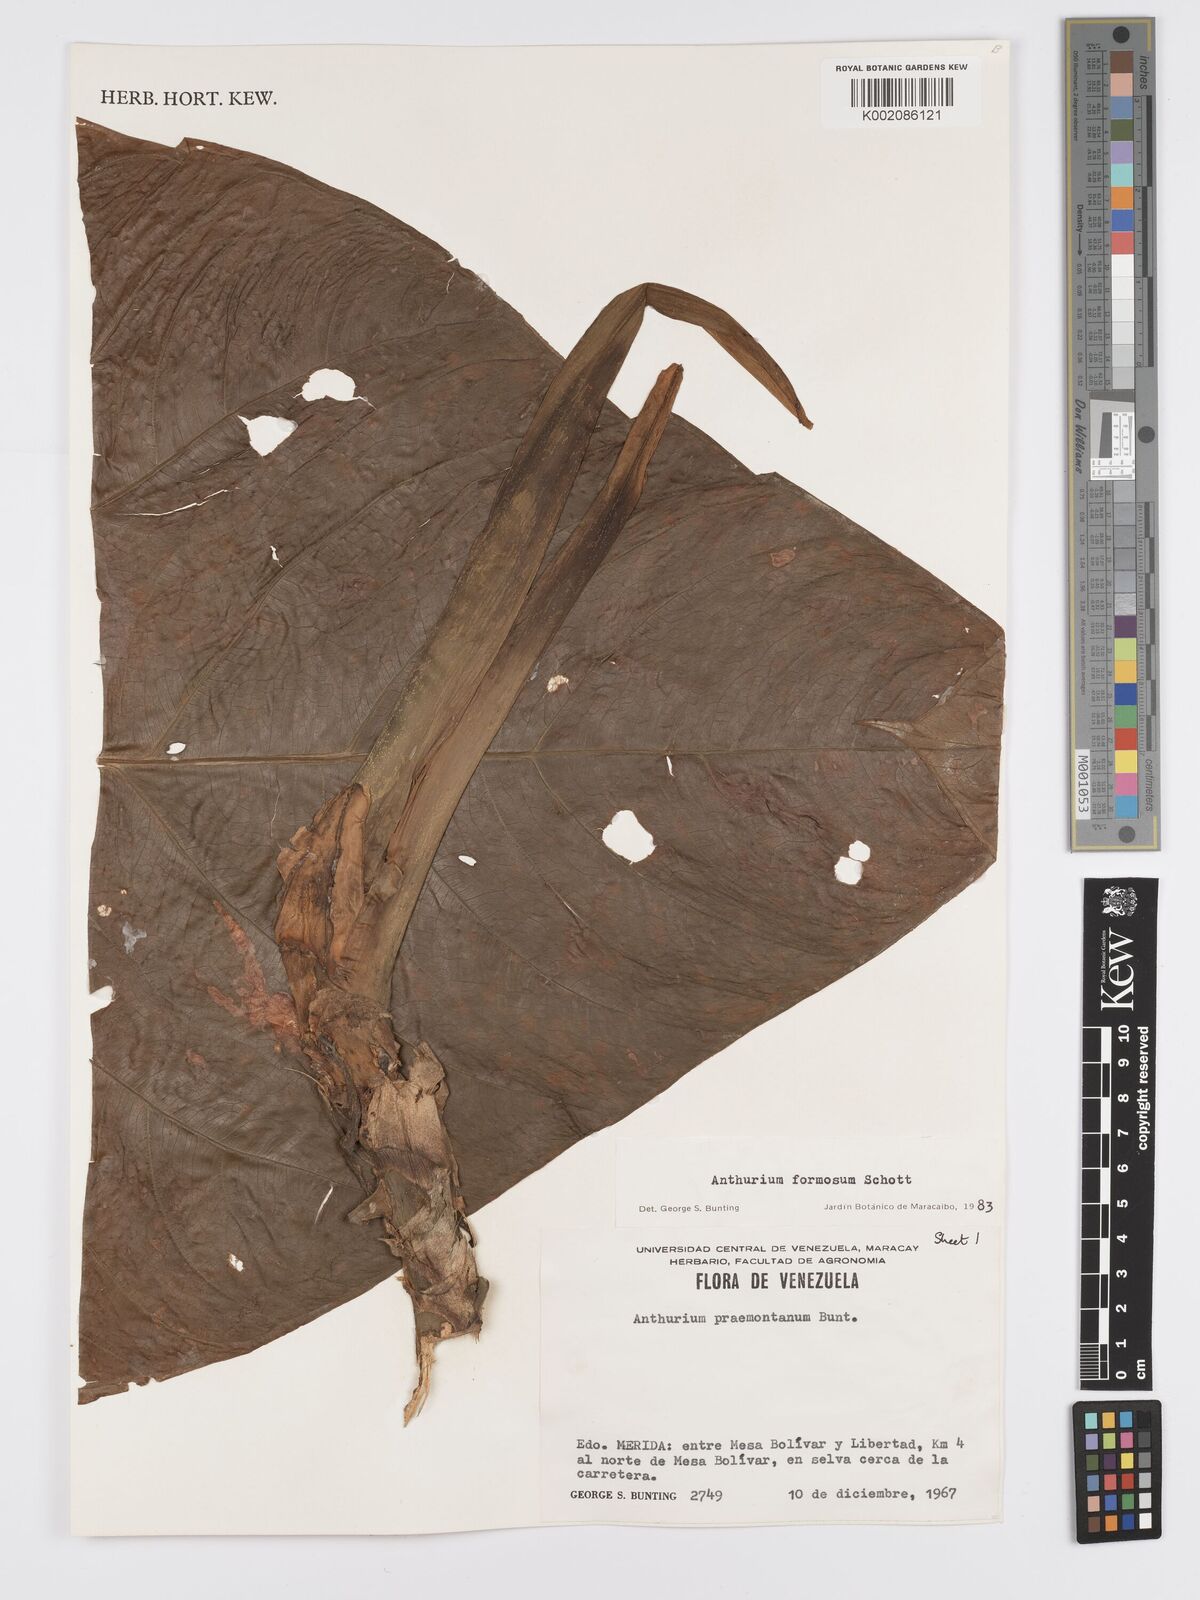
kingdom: Plantae
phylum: Tracheophyta
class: Liliopsida
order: Alismatales
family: Araceae
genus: Anthurium
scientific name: Anthurium formosum
